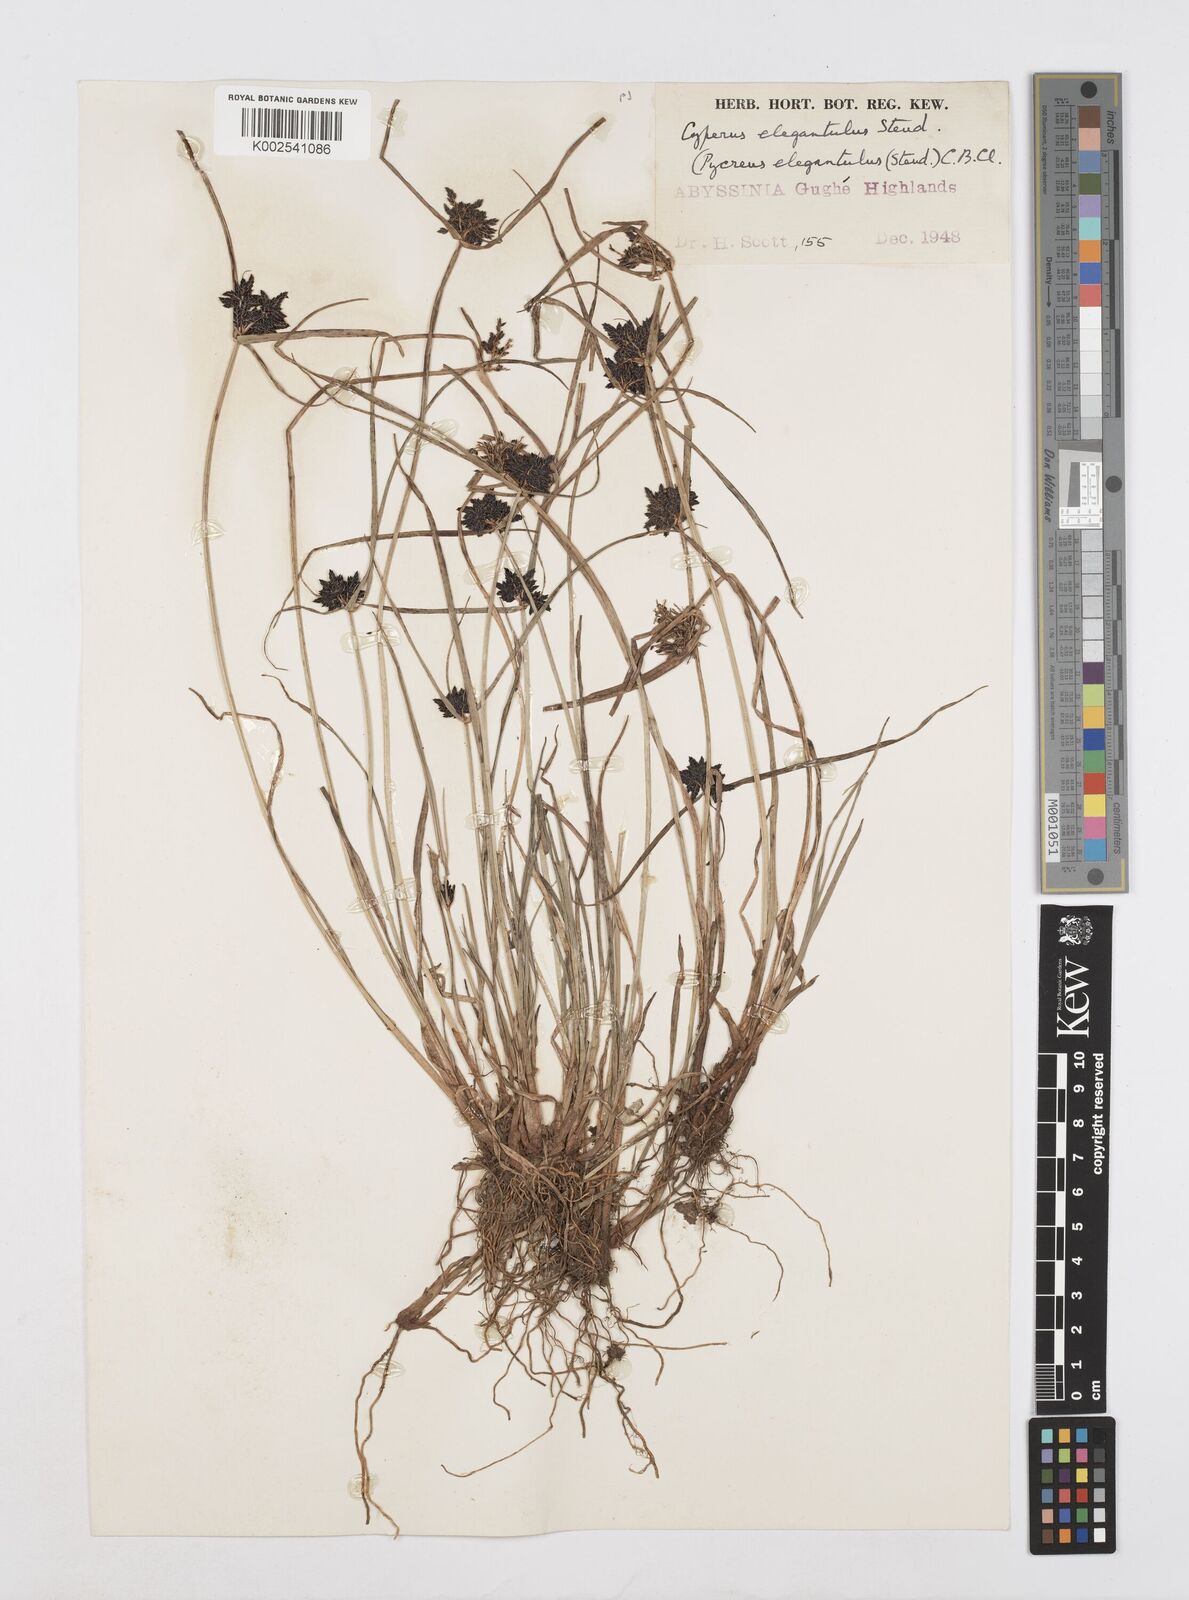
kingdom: Plantae
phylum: Tracheophyta
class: Liliopsida
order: Poales
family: Cyperaceae
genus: Cyperus
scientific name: Cyperus elegantulus
